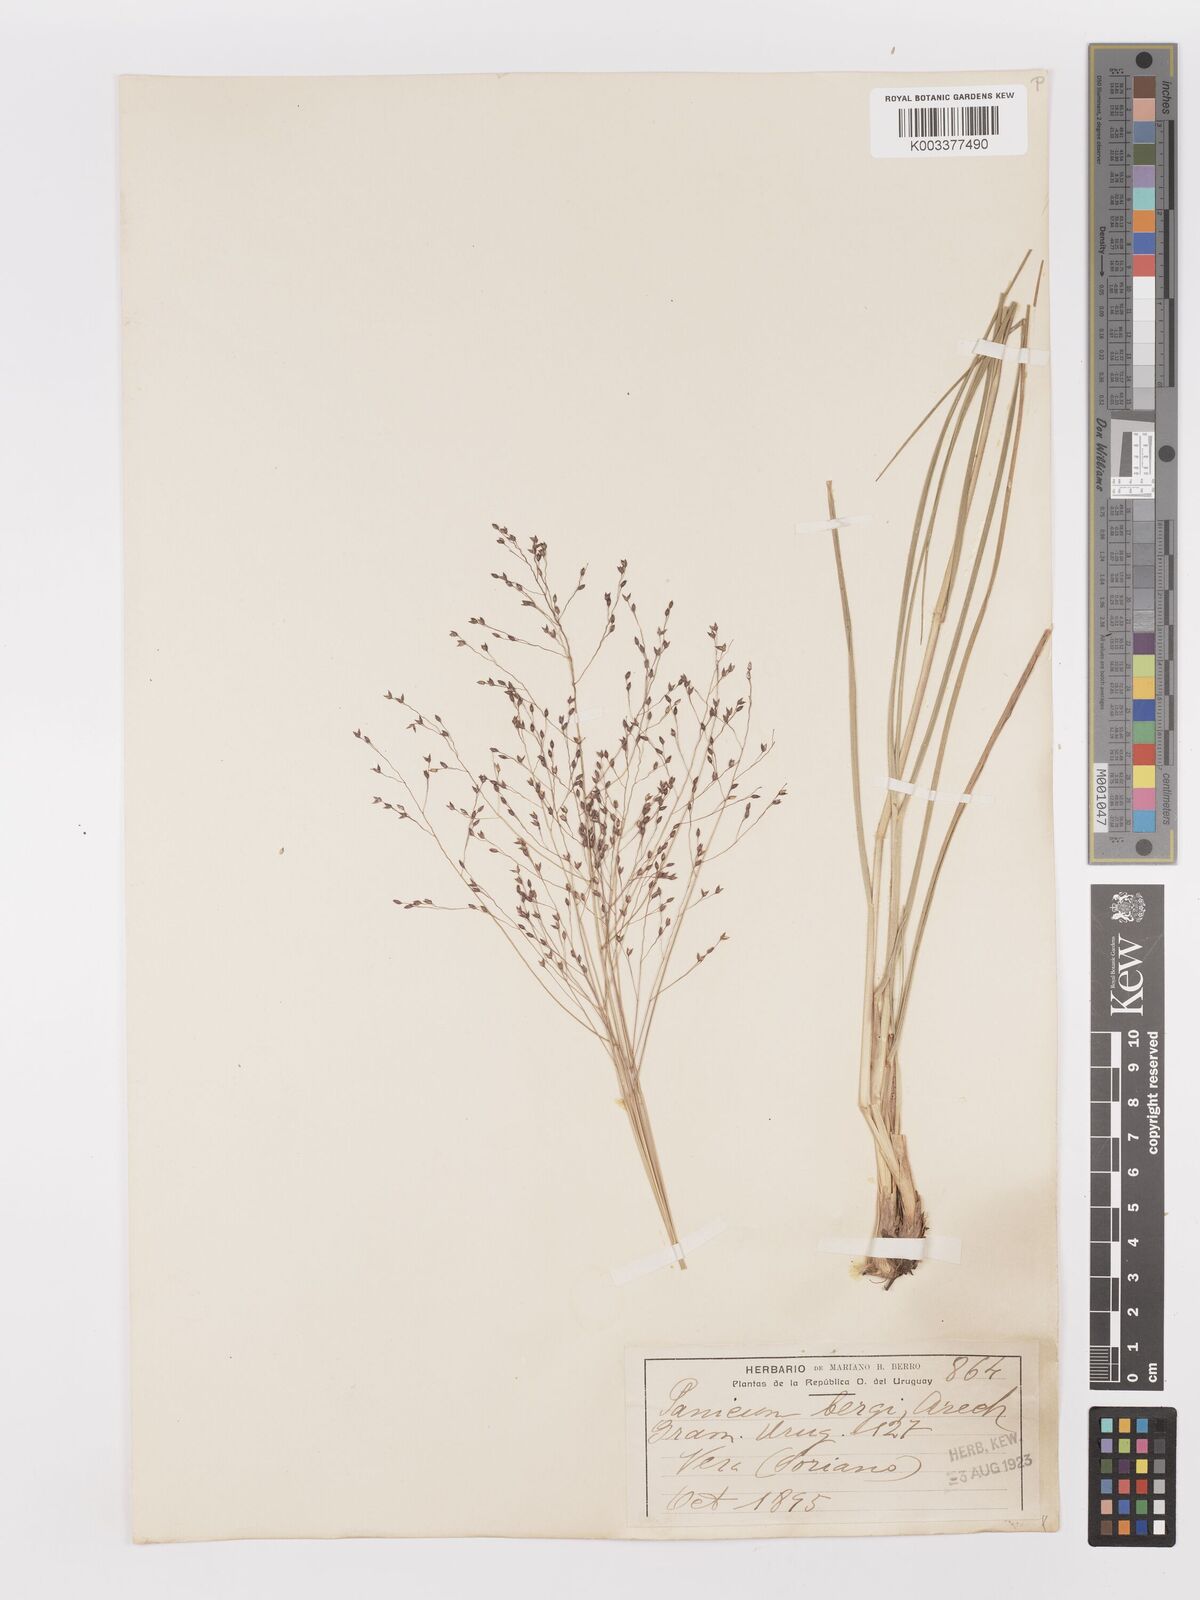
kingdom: Plantae
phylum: Tracheophyta
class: Liliopsida
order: Poales
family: Poaceae
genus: Panicum
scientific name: Panicum bergii
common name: Berg's panicgrass
